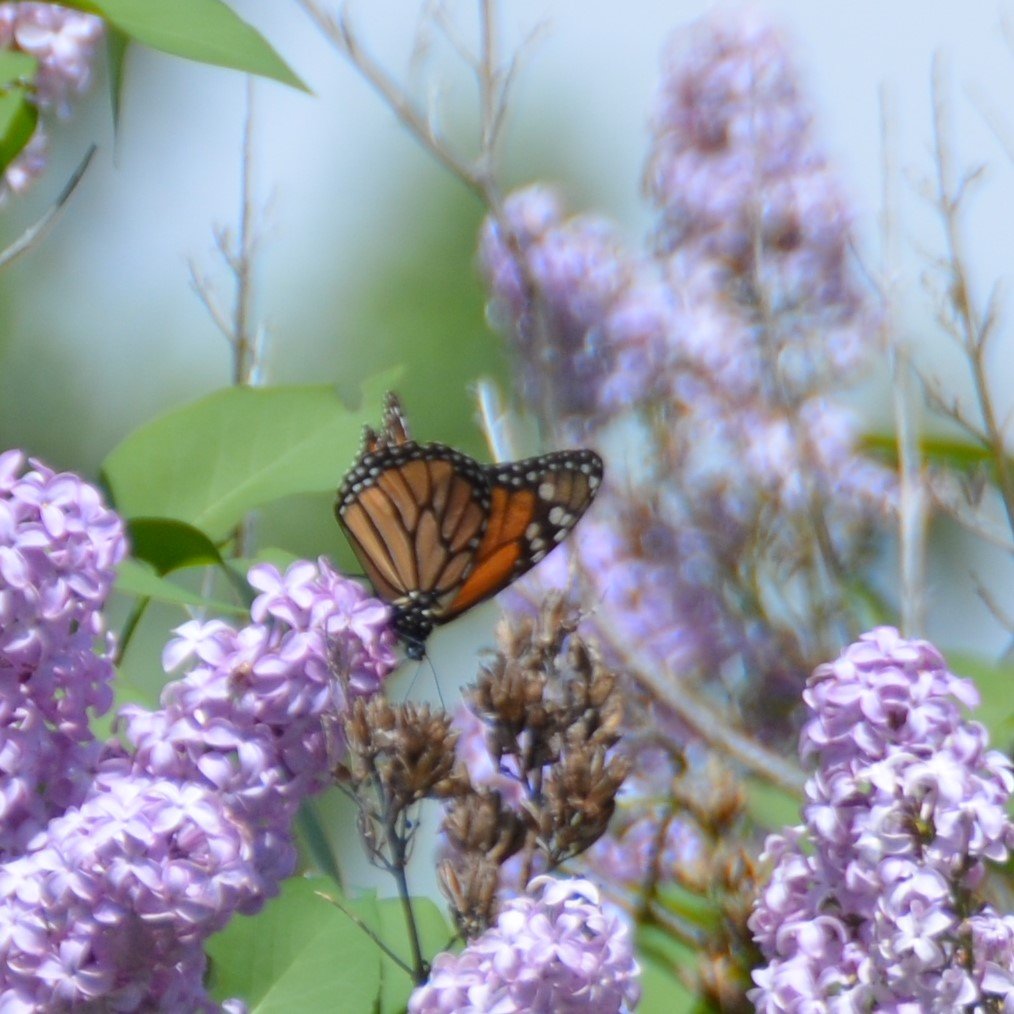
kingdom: Animalia
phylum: Arthropoda
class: Insecta
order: Lepidoptera
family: Nymphalidae
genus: Danaus
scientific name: Danaus plexippus
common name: Monarch
